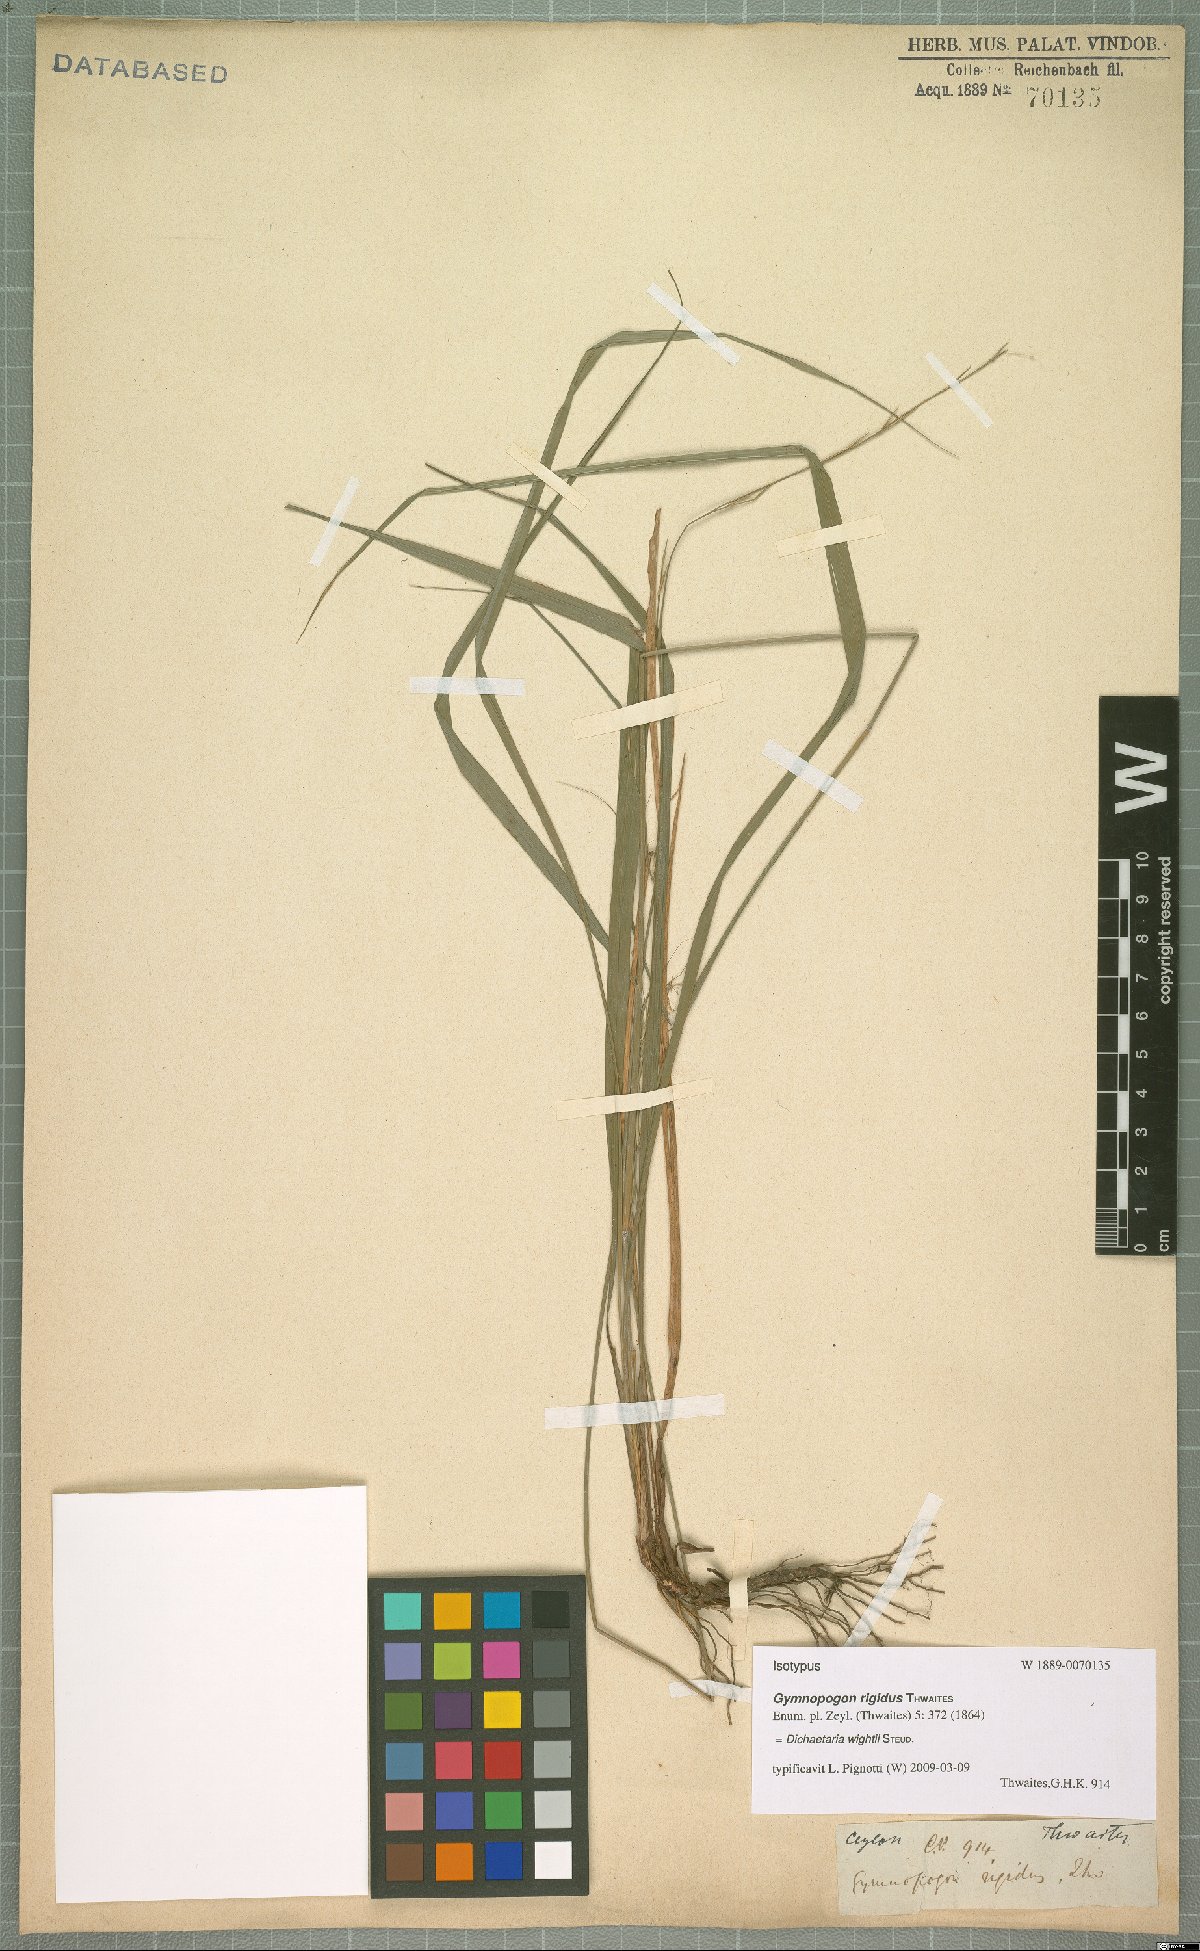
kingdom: Plantae
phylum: Tracheophyta
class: Liliopsida
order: Poales
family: Poaceae
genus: Dichaetaria
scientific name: Dichaetaria wightii
